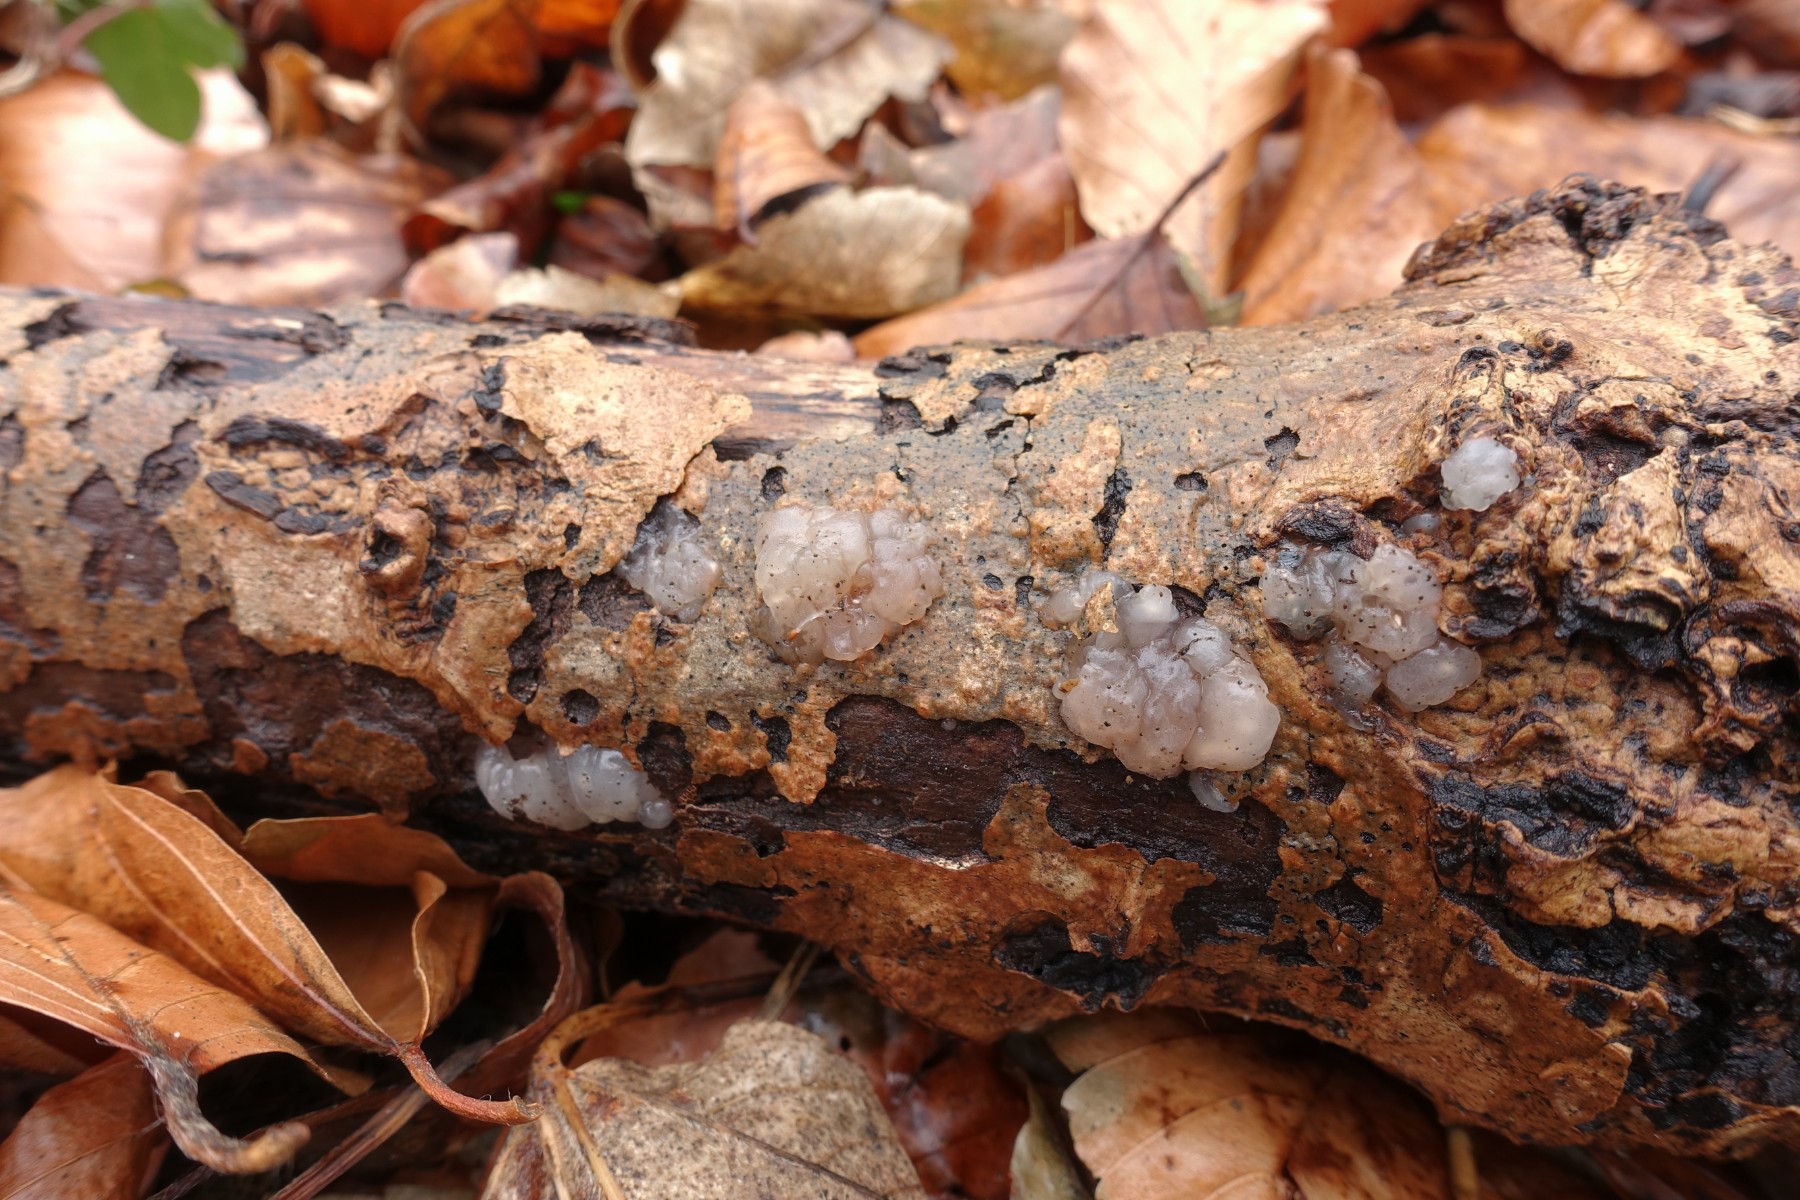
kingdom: Fungi
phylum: Basidiomycota
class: Agaricomycetes
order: Auriculariales
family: Hyaloriaceae
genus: Myxarium
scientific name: Myxarium nucleatum
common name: klar bævretop
